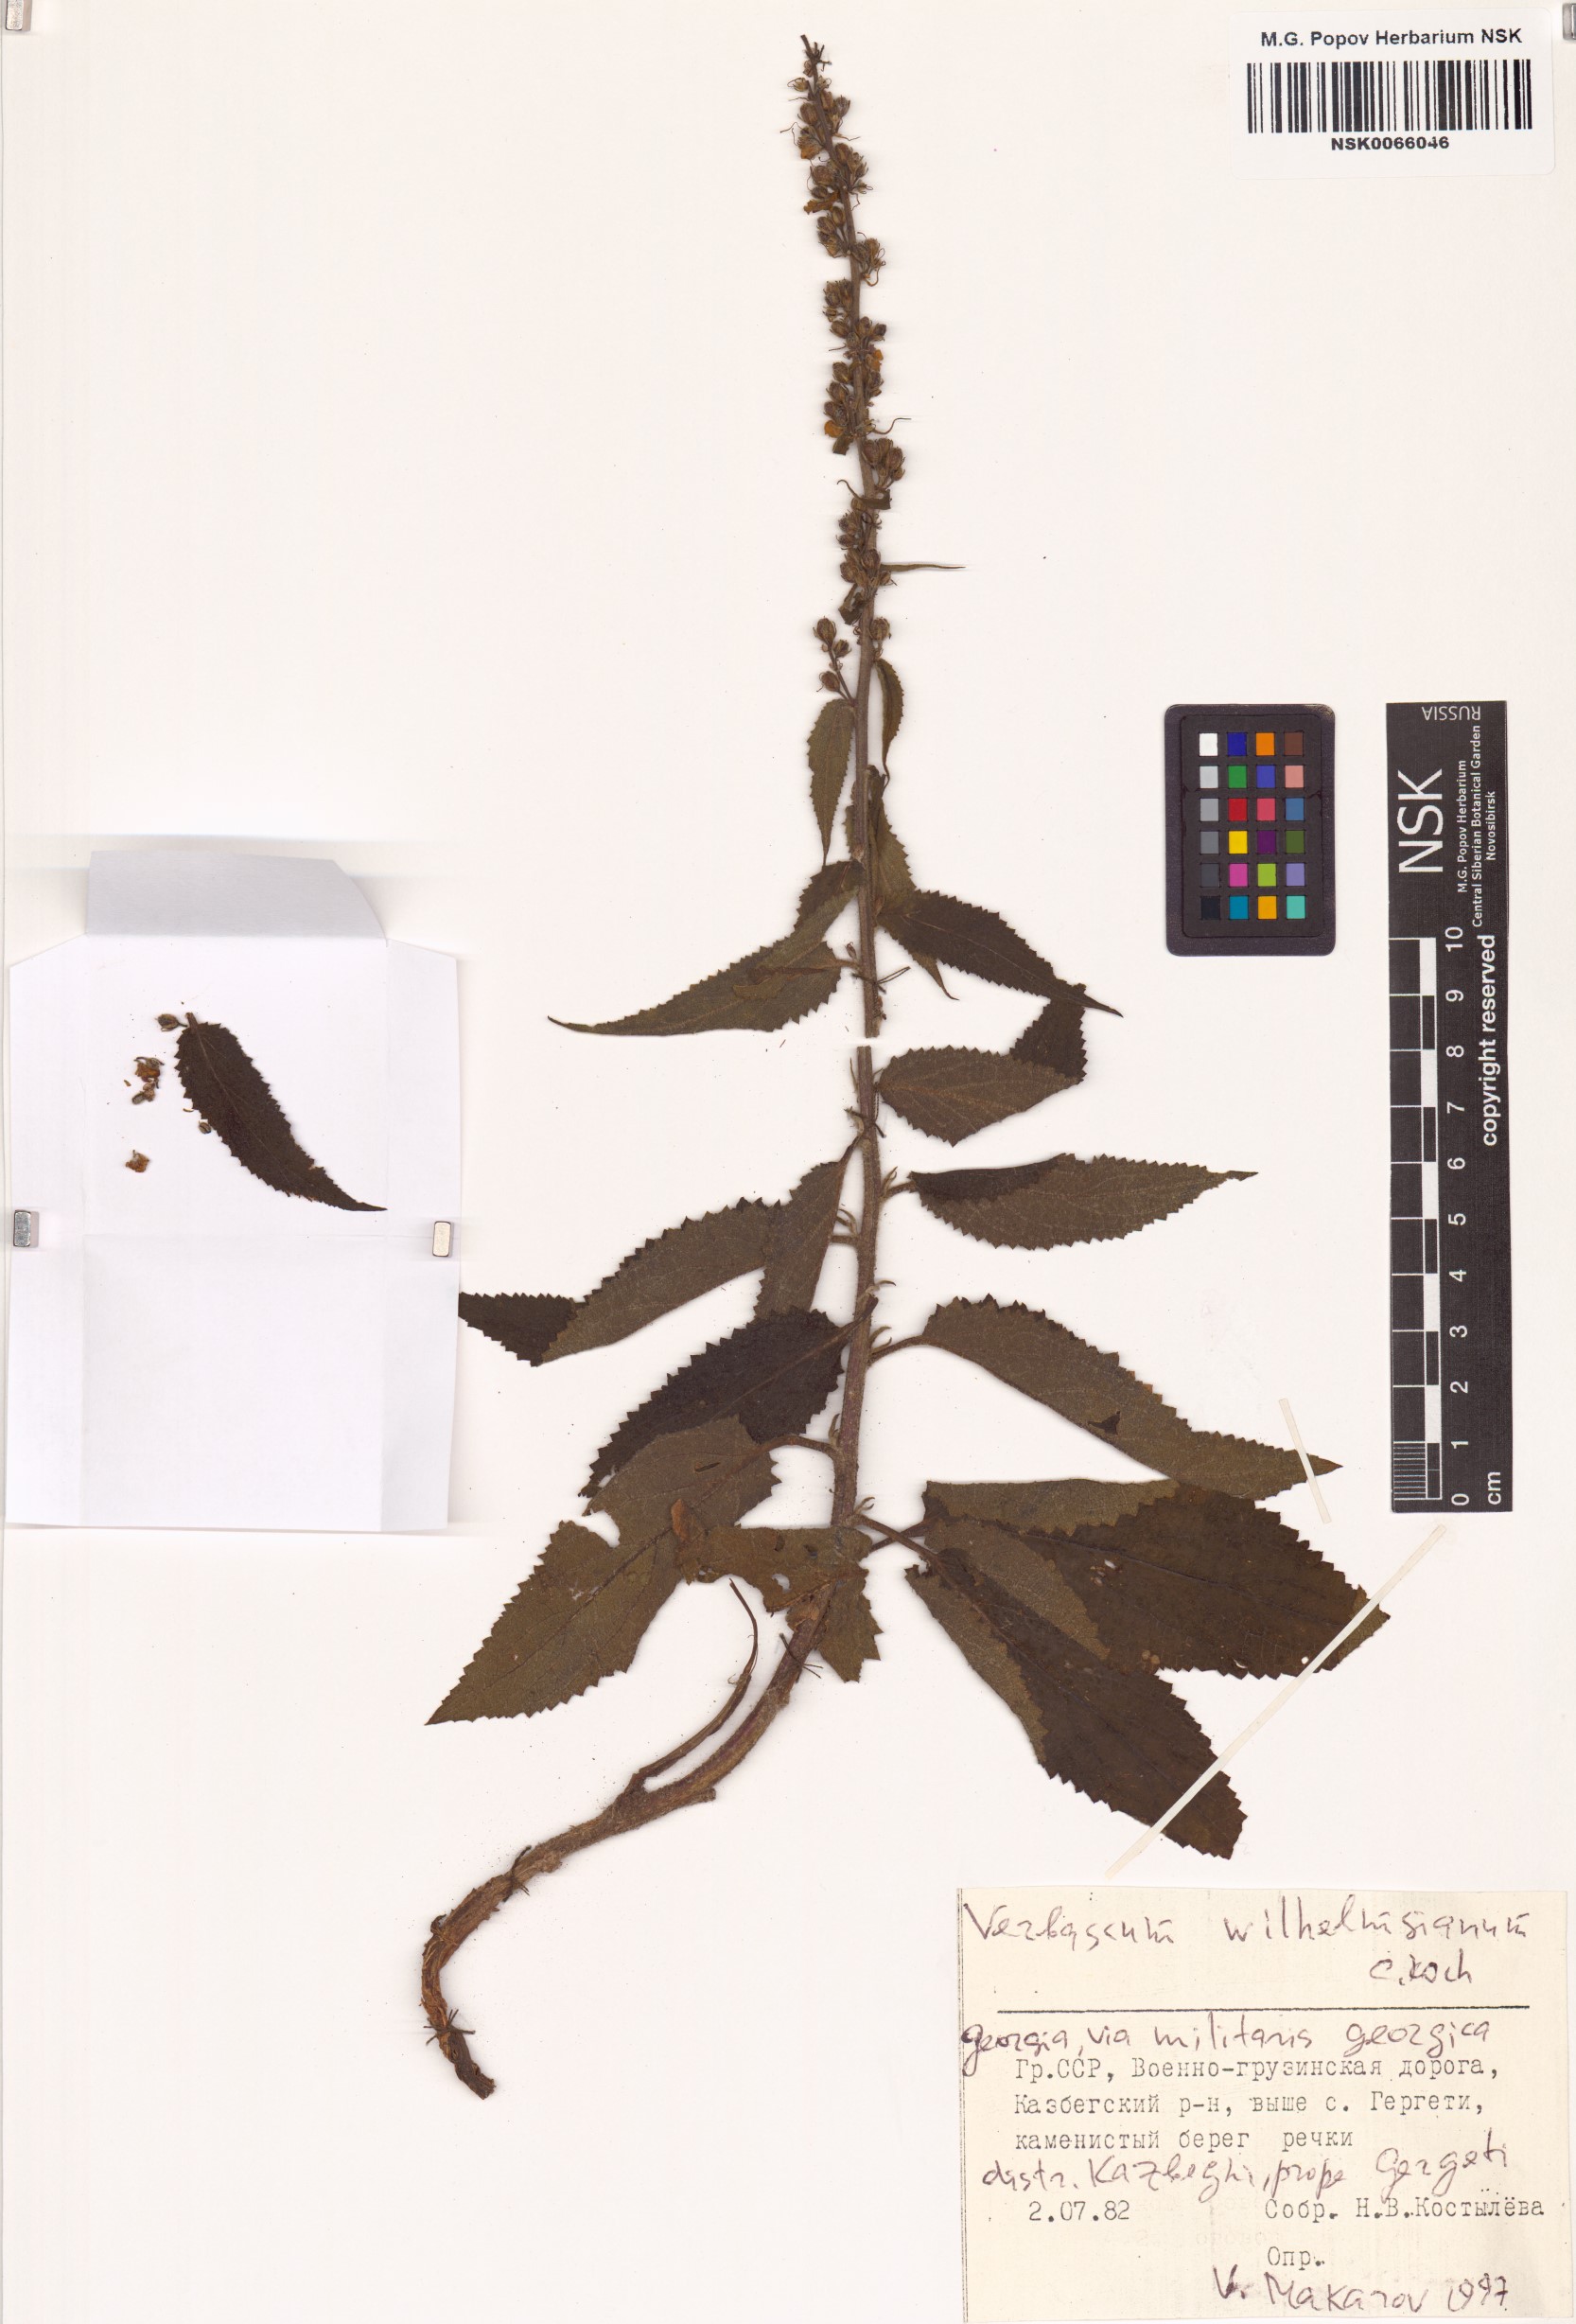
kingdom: Plantae
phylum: Tracheophyta
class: Magnoliopsida
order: Lamiales
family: Scrophulariaceae
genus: Verbascum
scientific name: Verbascum wilhelmsianum
